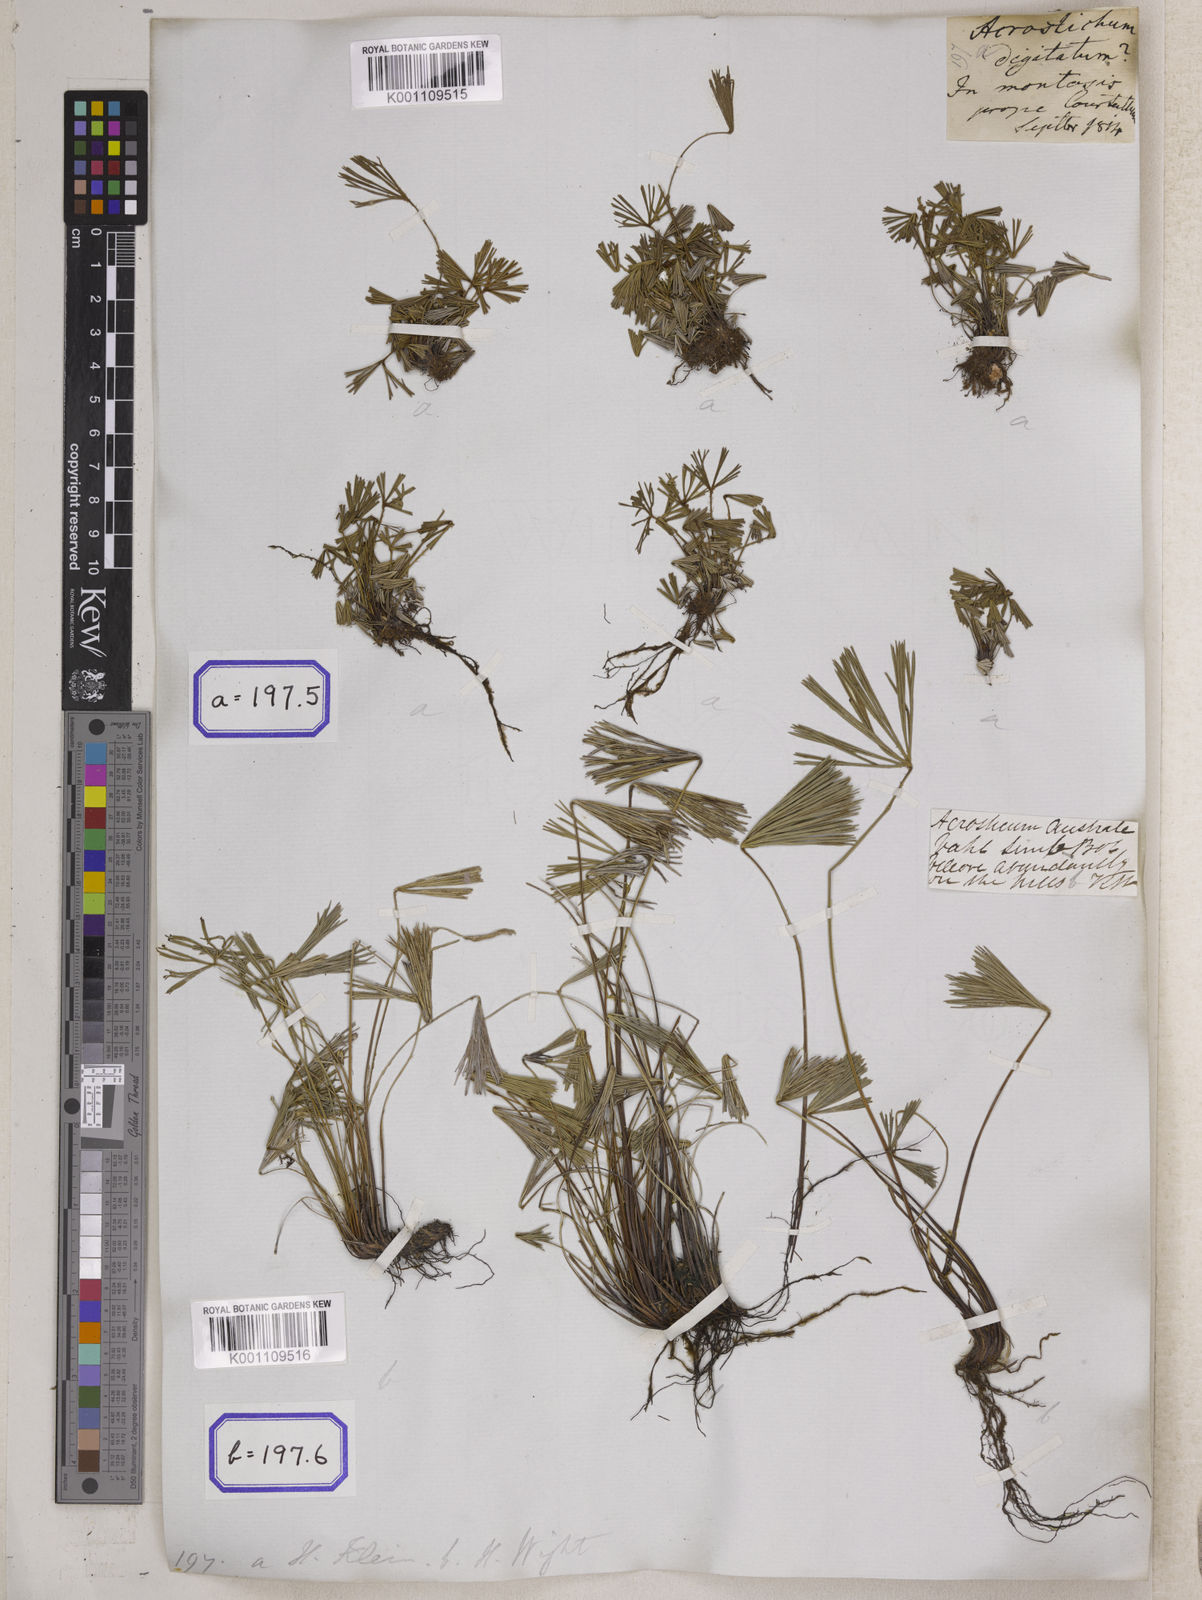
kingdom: Plantae
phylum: Tracheophyta
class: Polypodiopsida
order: Polypodiales
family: Pteridaceae
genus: Actiniopteris
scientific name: Actiniopteris radiata
